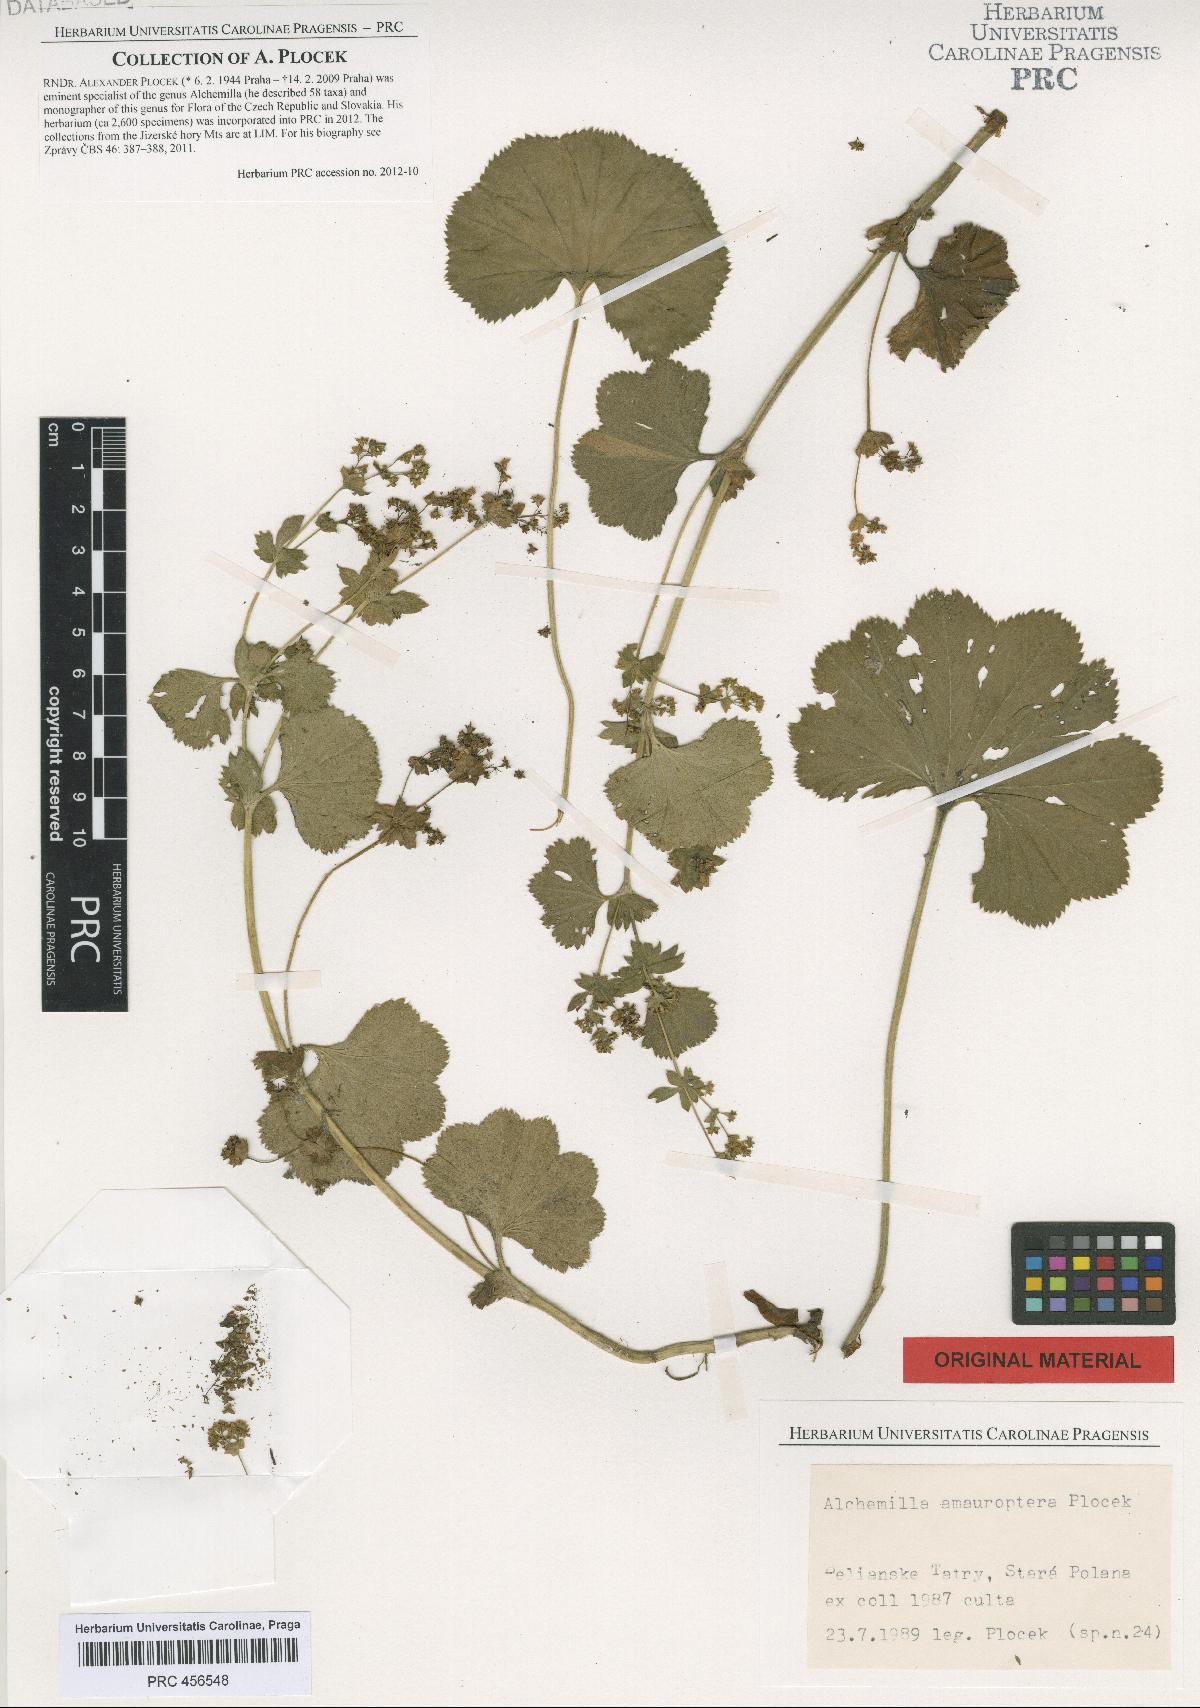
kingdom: Plantae
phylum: Tracheophyta
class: Magnoliopsida
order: Rosales
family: Rosaceae
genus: Alchemilla
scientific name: Alchemilla amauroptera
